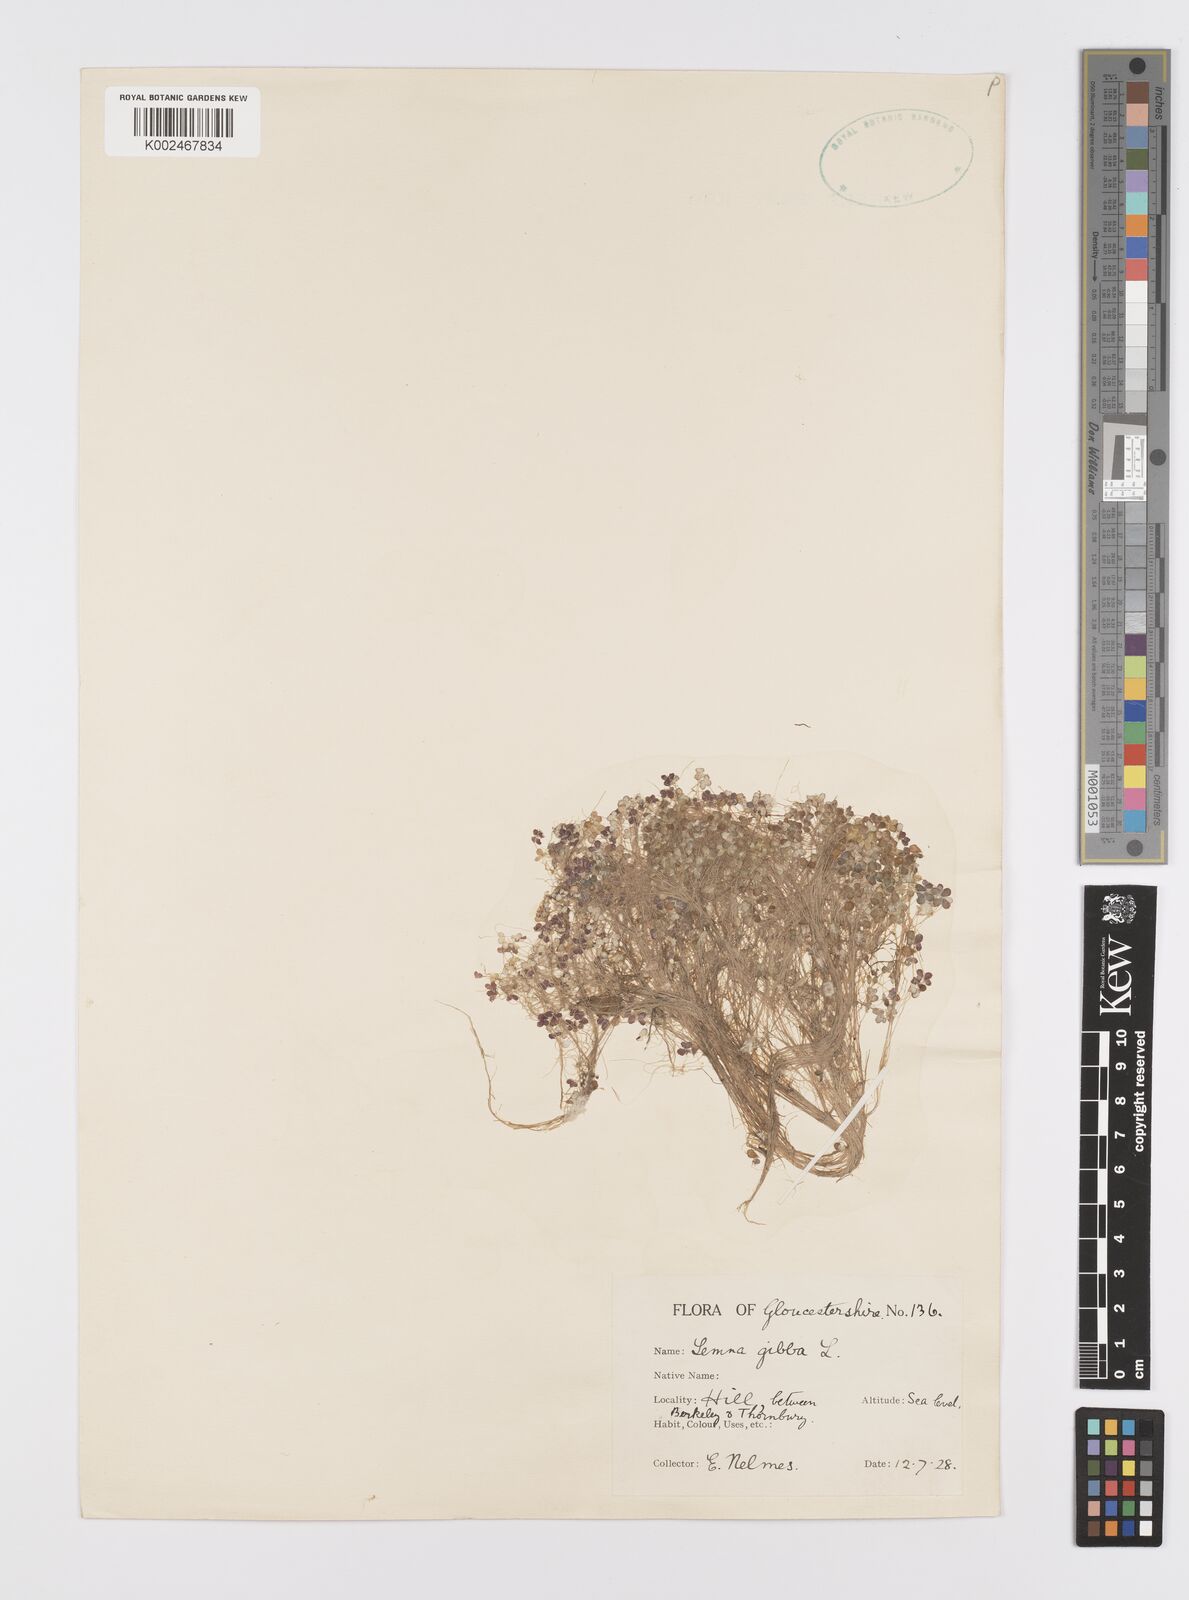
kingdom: Plantae
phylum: Tracheophyta
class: Liliopsida
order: Alismatales
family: Araceae
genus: Lemna
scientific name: Lemna gibba
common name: Fat duckweed
